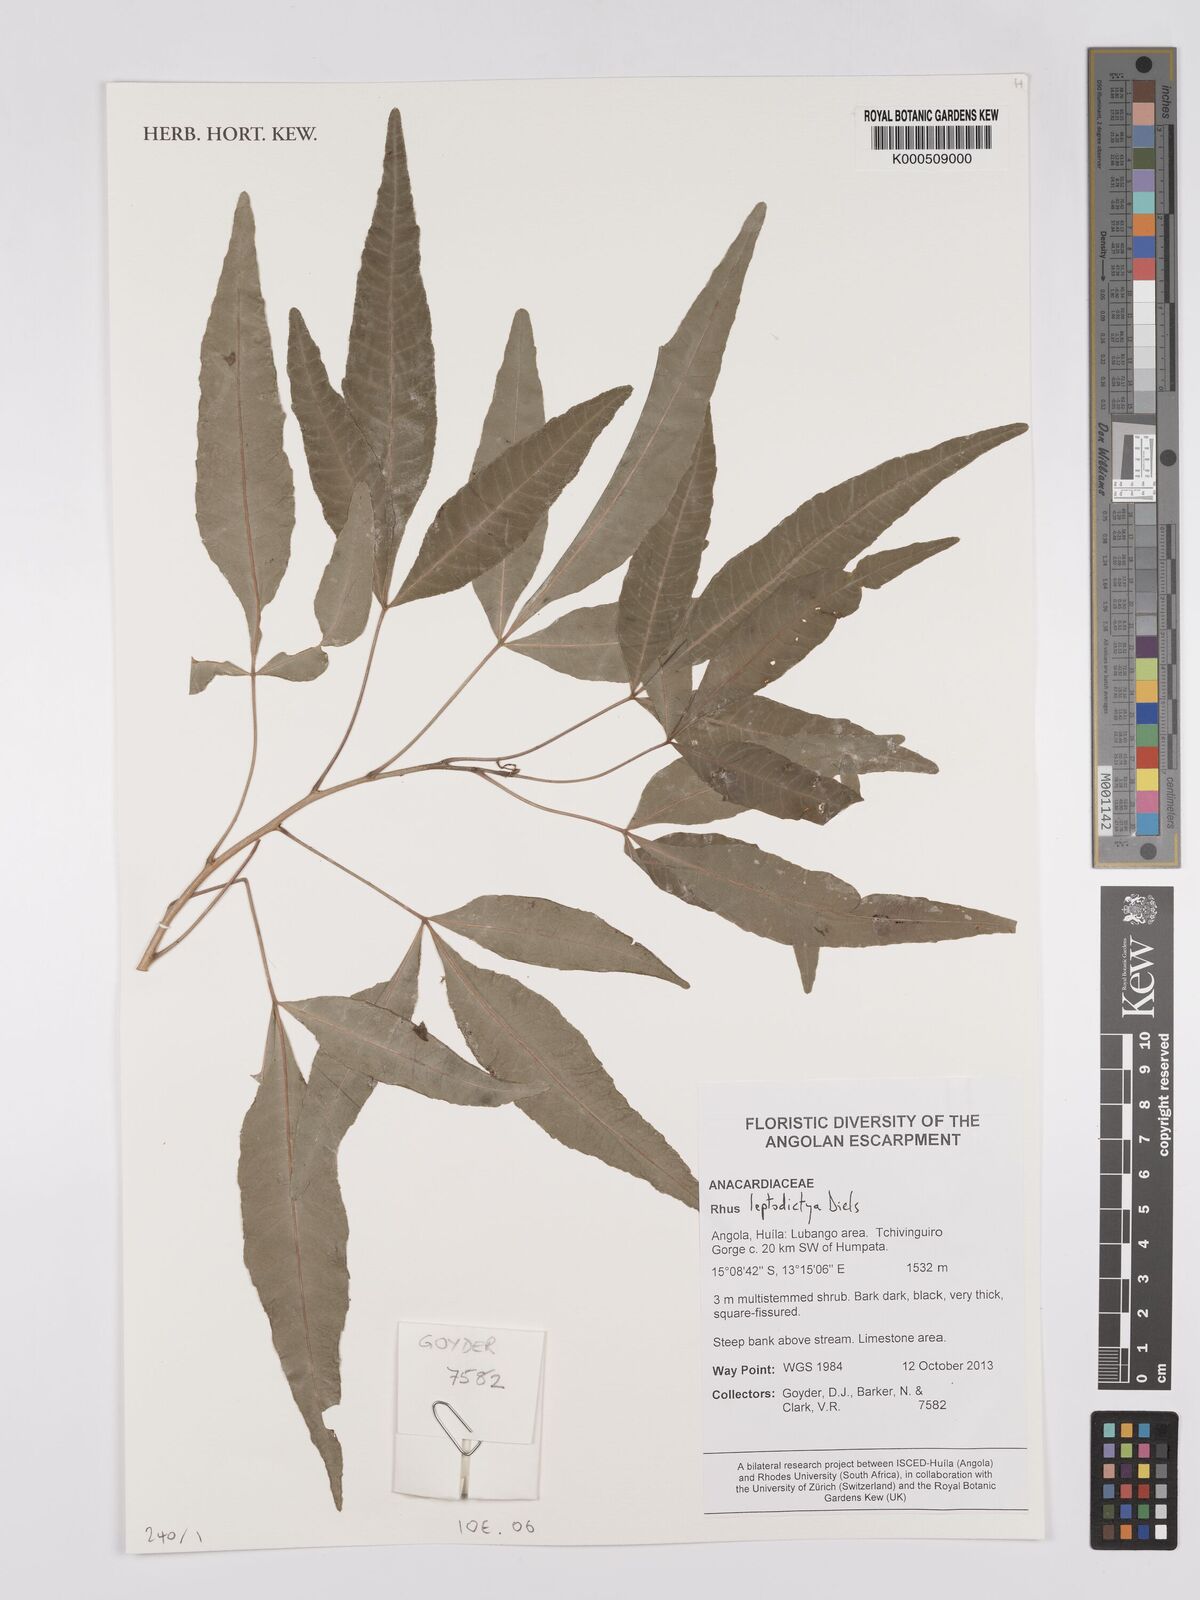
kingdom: Plantae
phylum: Tracheophyta
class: Magnoliopsida
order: Sapindales
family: Anacardiaceae
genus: Searsia
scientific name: Searsia leptodictya
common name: Mountain karee
